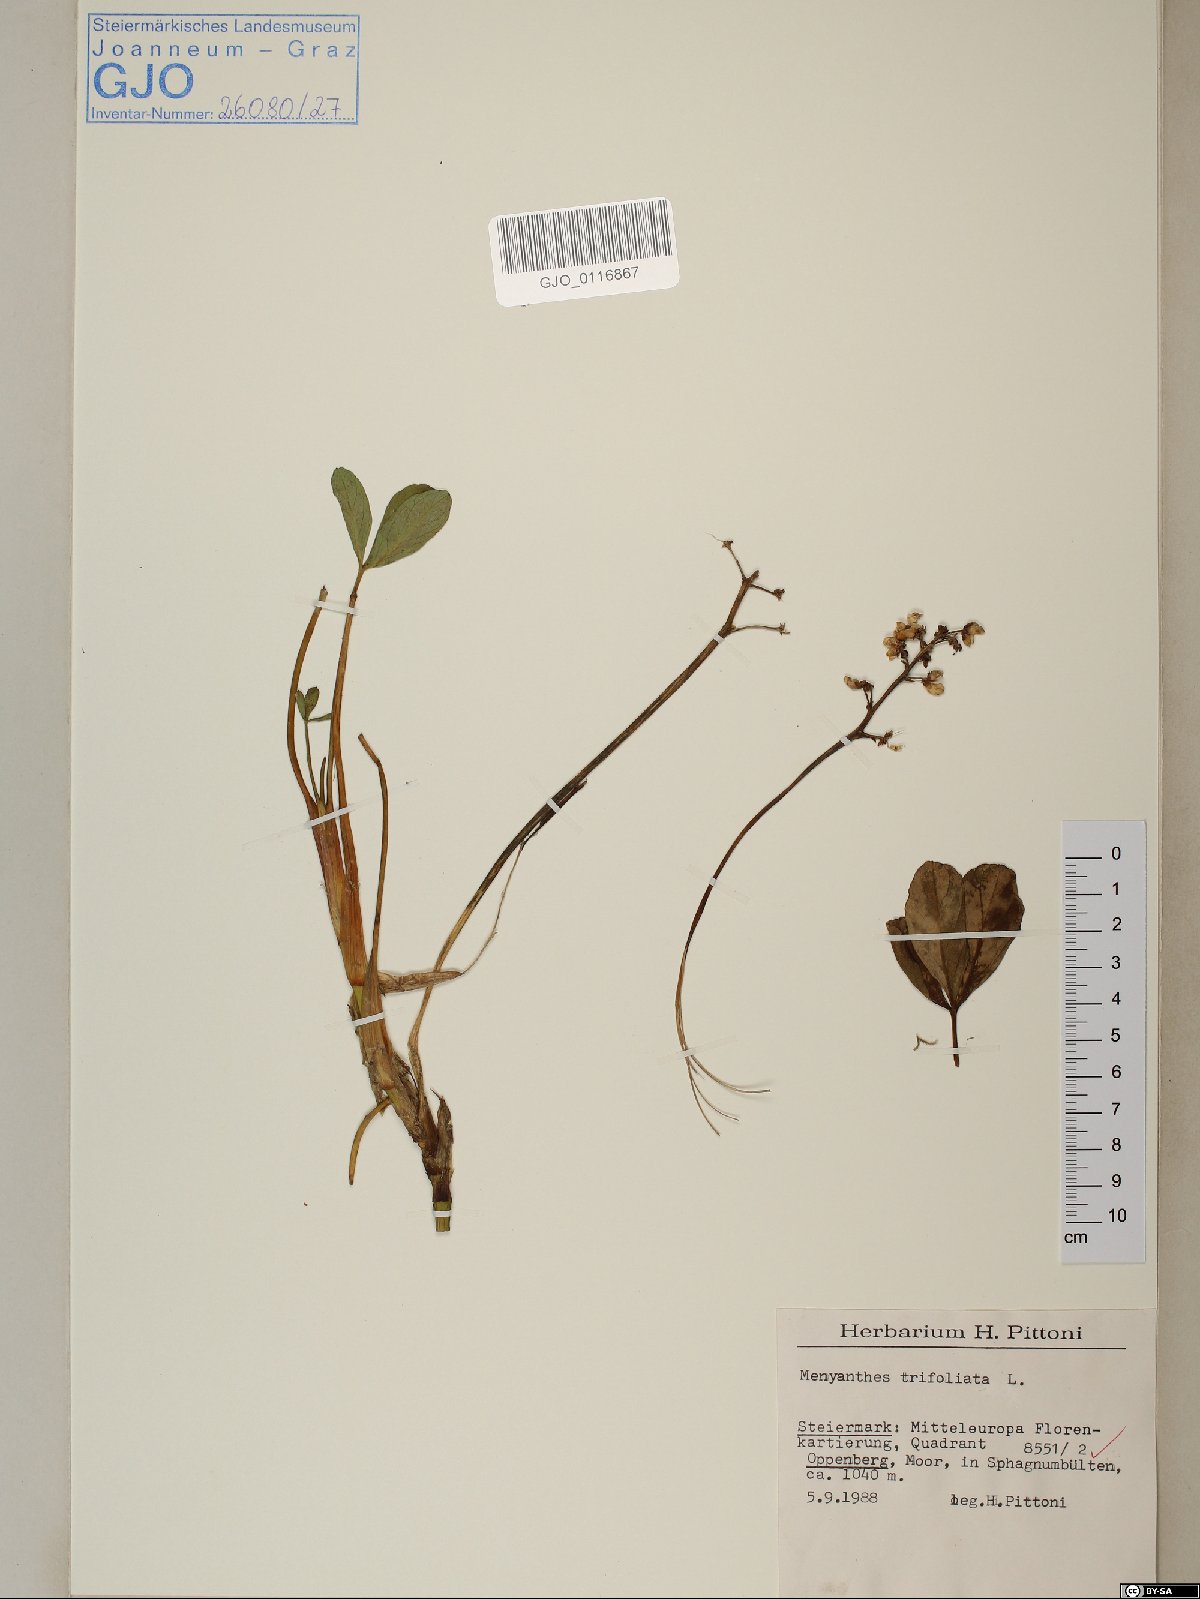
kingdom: Plantae
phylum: Tracheophyta
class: Magnoliopsida
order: Asterales
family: Menyanthaceae
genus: Menyanthes
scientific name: Menyanthes trifoliata
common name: Bogbean
